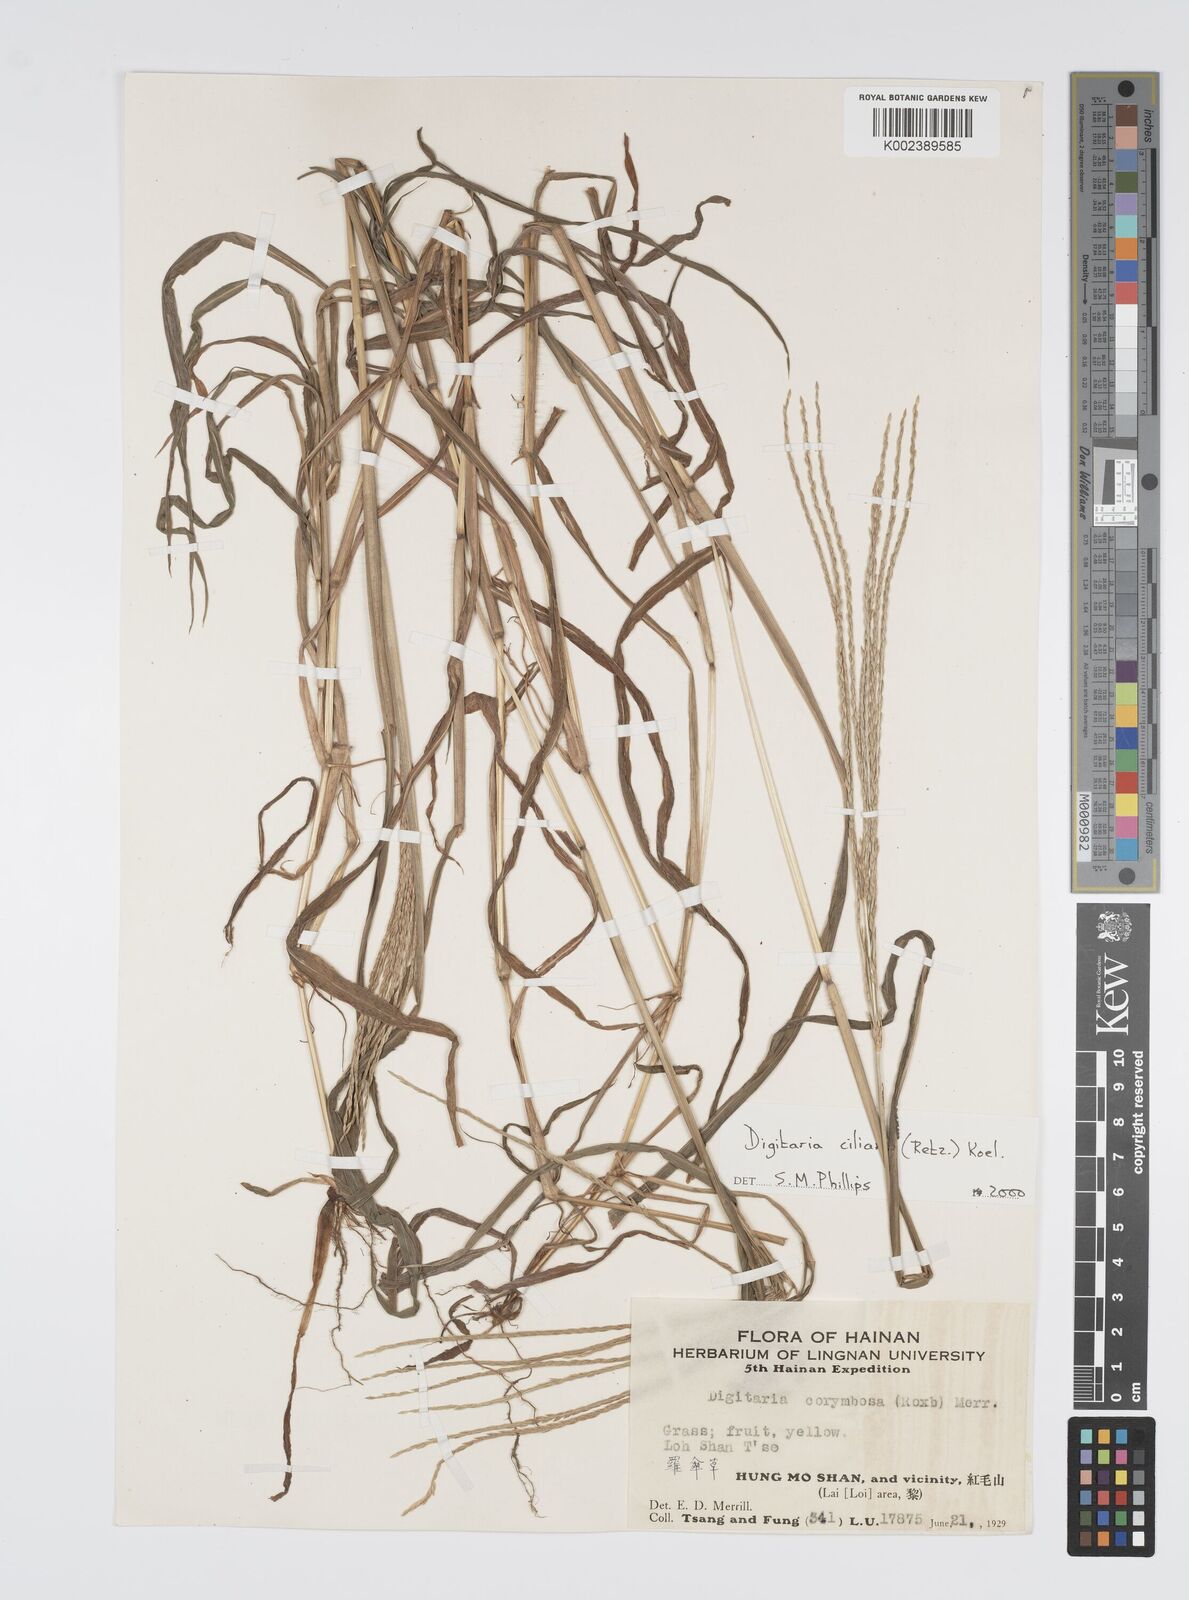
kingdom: Plantae
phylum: Tracheophyta
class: Liliopsida
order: Poales
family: Poaceae
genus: Digitaria
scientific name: Digitaria ciliaris
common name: Tropical finger-grass
